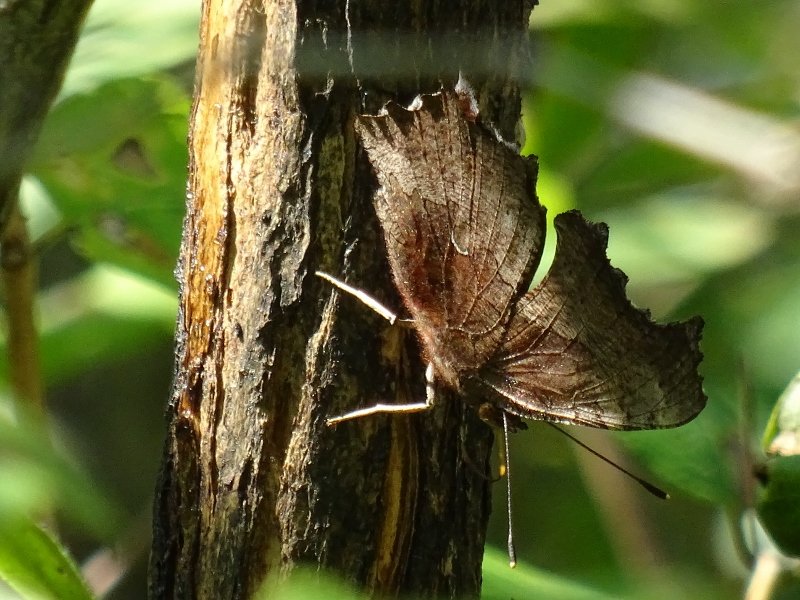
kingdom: Animalia
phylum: Arthropoda
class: Insecta
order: Lepidoptera
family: Nymphalidae
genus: Polygonia
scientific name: Polygonia comma
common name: Eastern Comma
